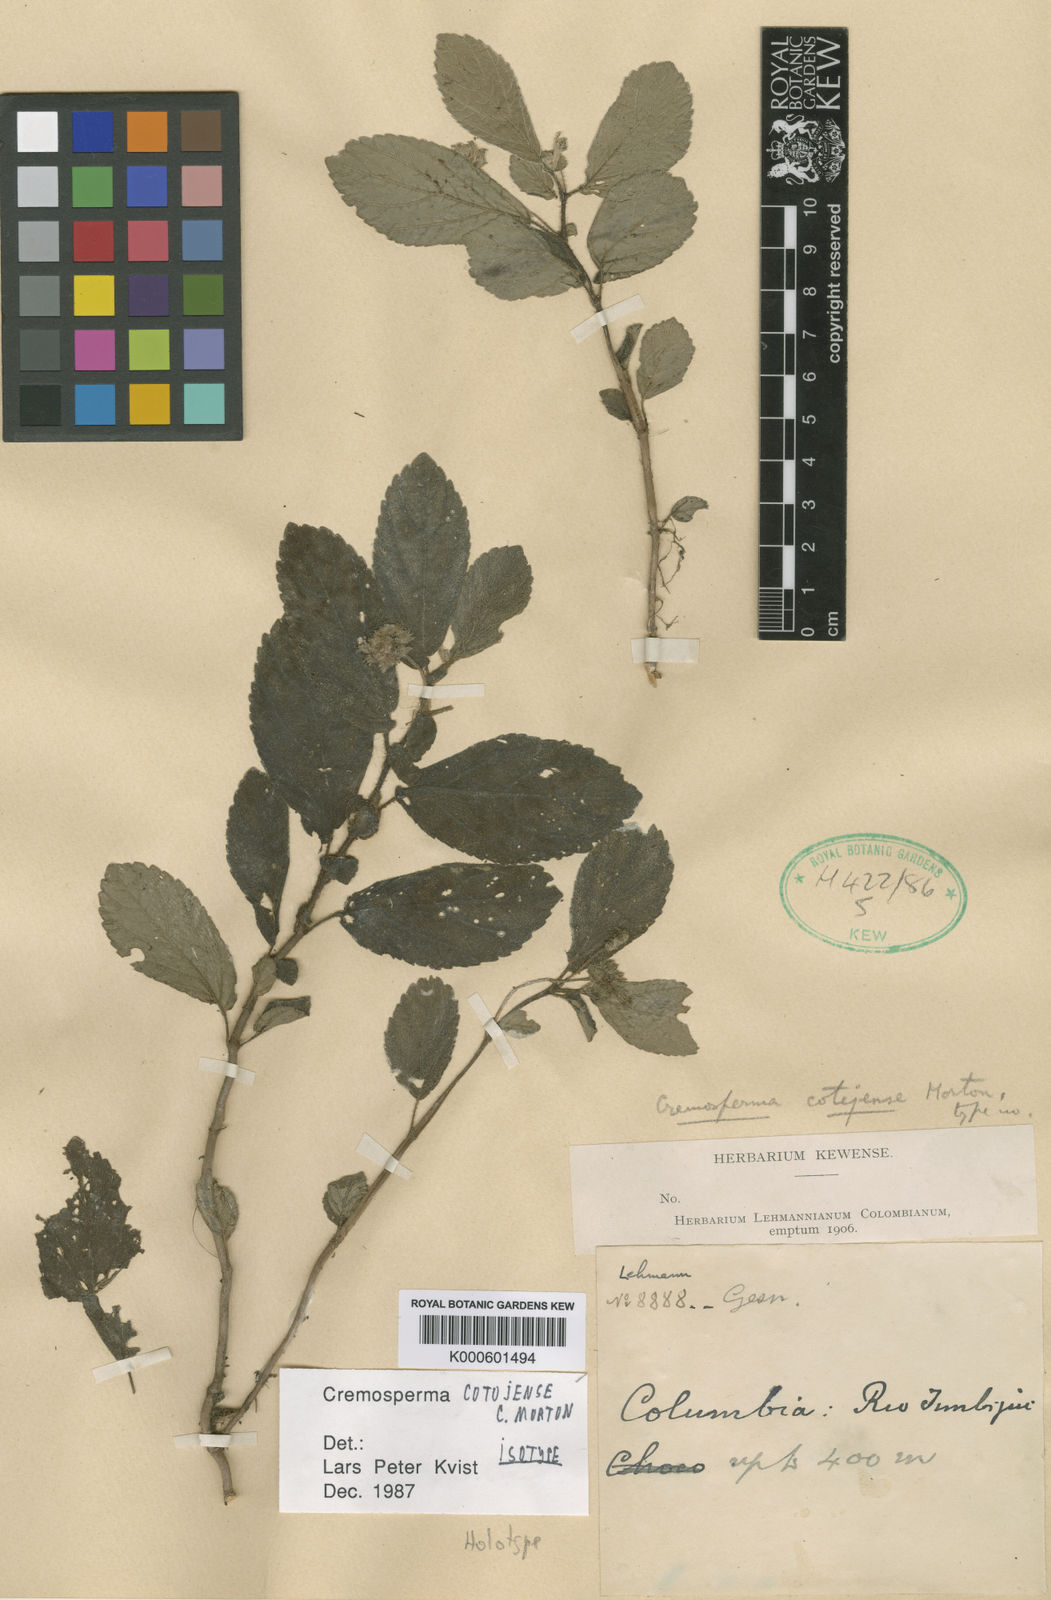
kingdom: Plantae
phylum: Tracheophyta
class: Magnoliopsida
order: Lamiales
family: Gesneriaceae
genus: Cremosperma
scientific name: Cremosperma cotejense
